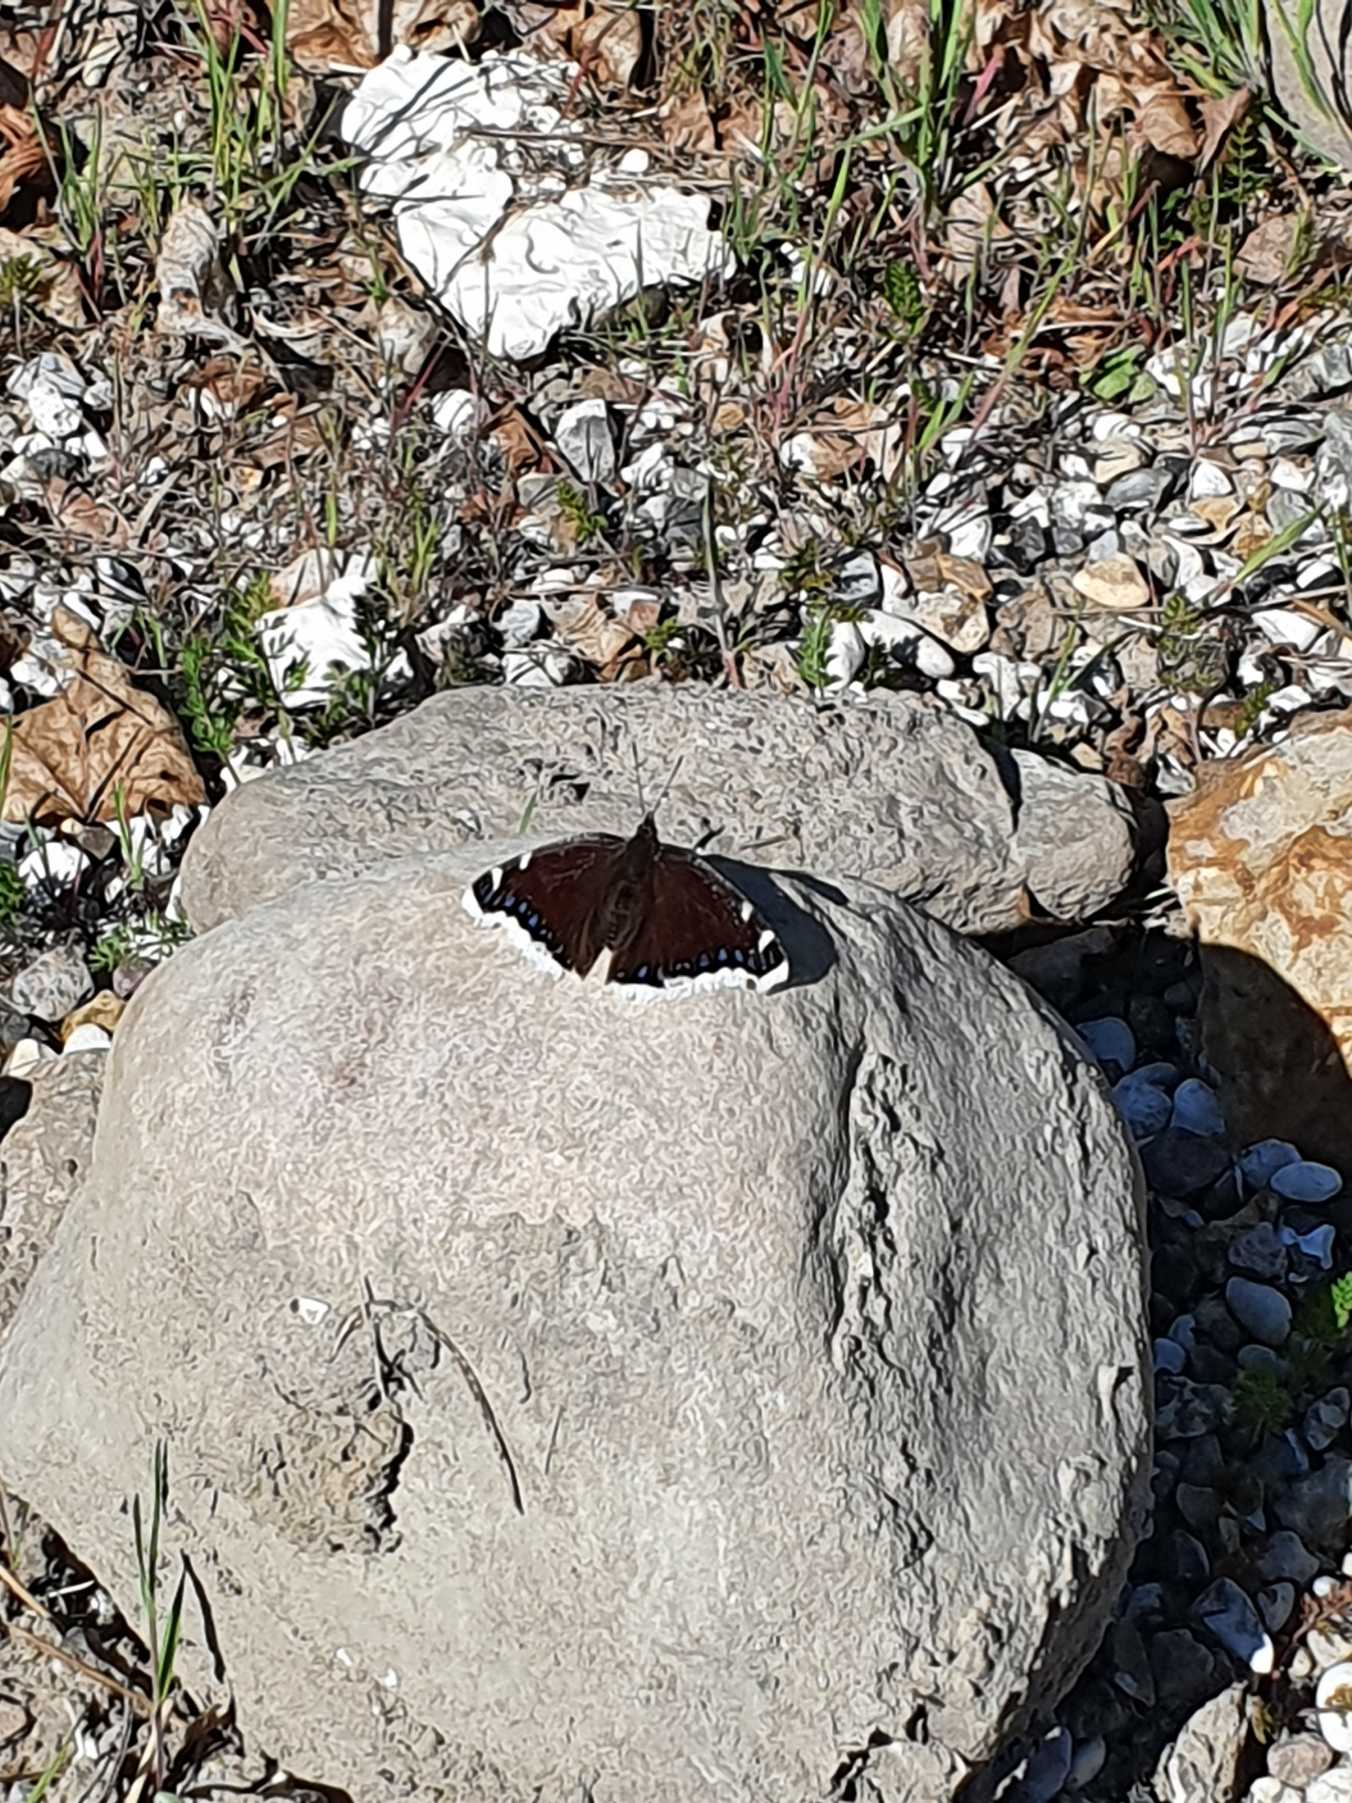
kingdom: Animalia
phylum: Arthropoda
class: Insecta
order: Lepidoptera
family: Nymphalidae
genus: Nymphalis
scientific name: Nymphalis antiopa
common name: Sørgekåbe
